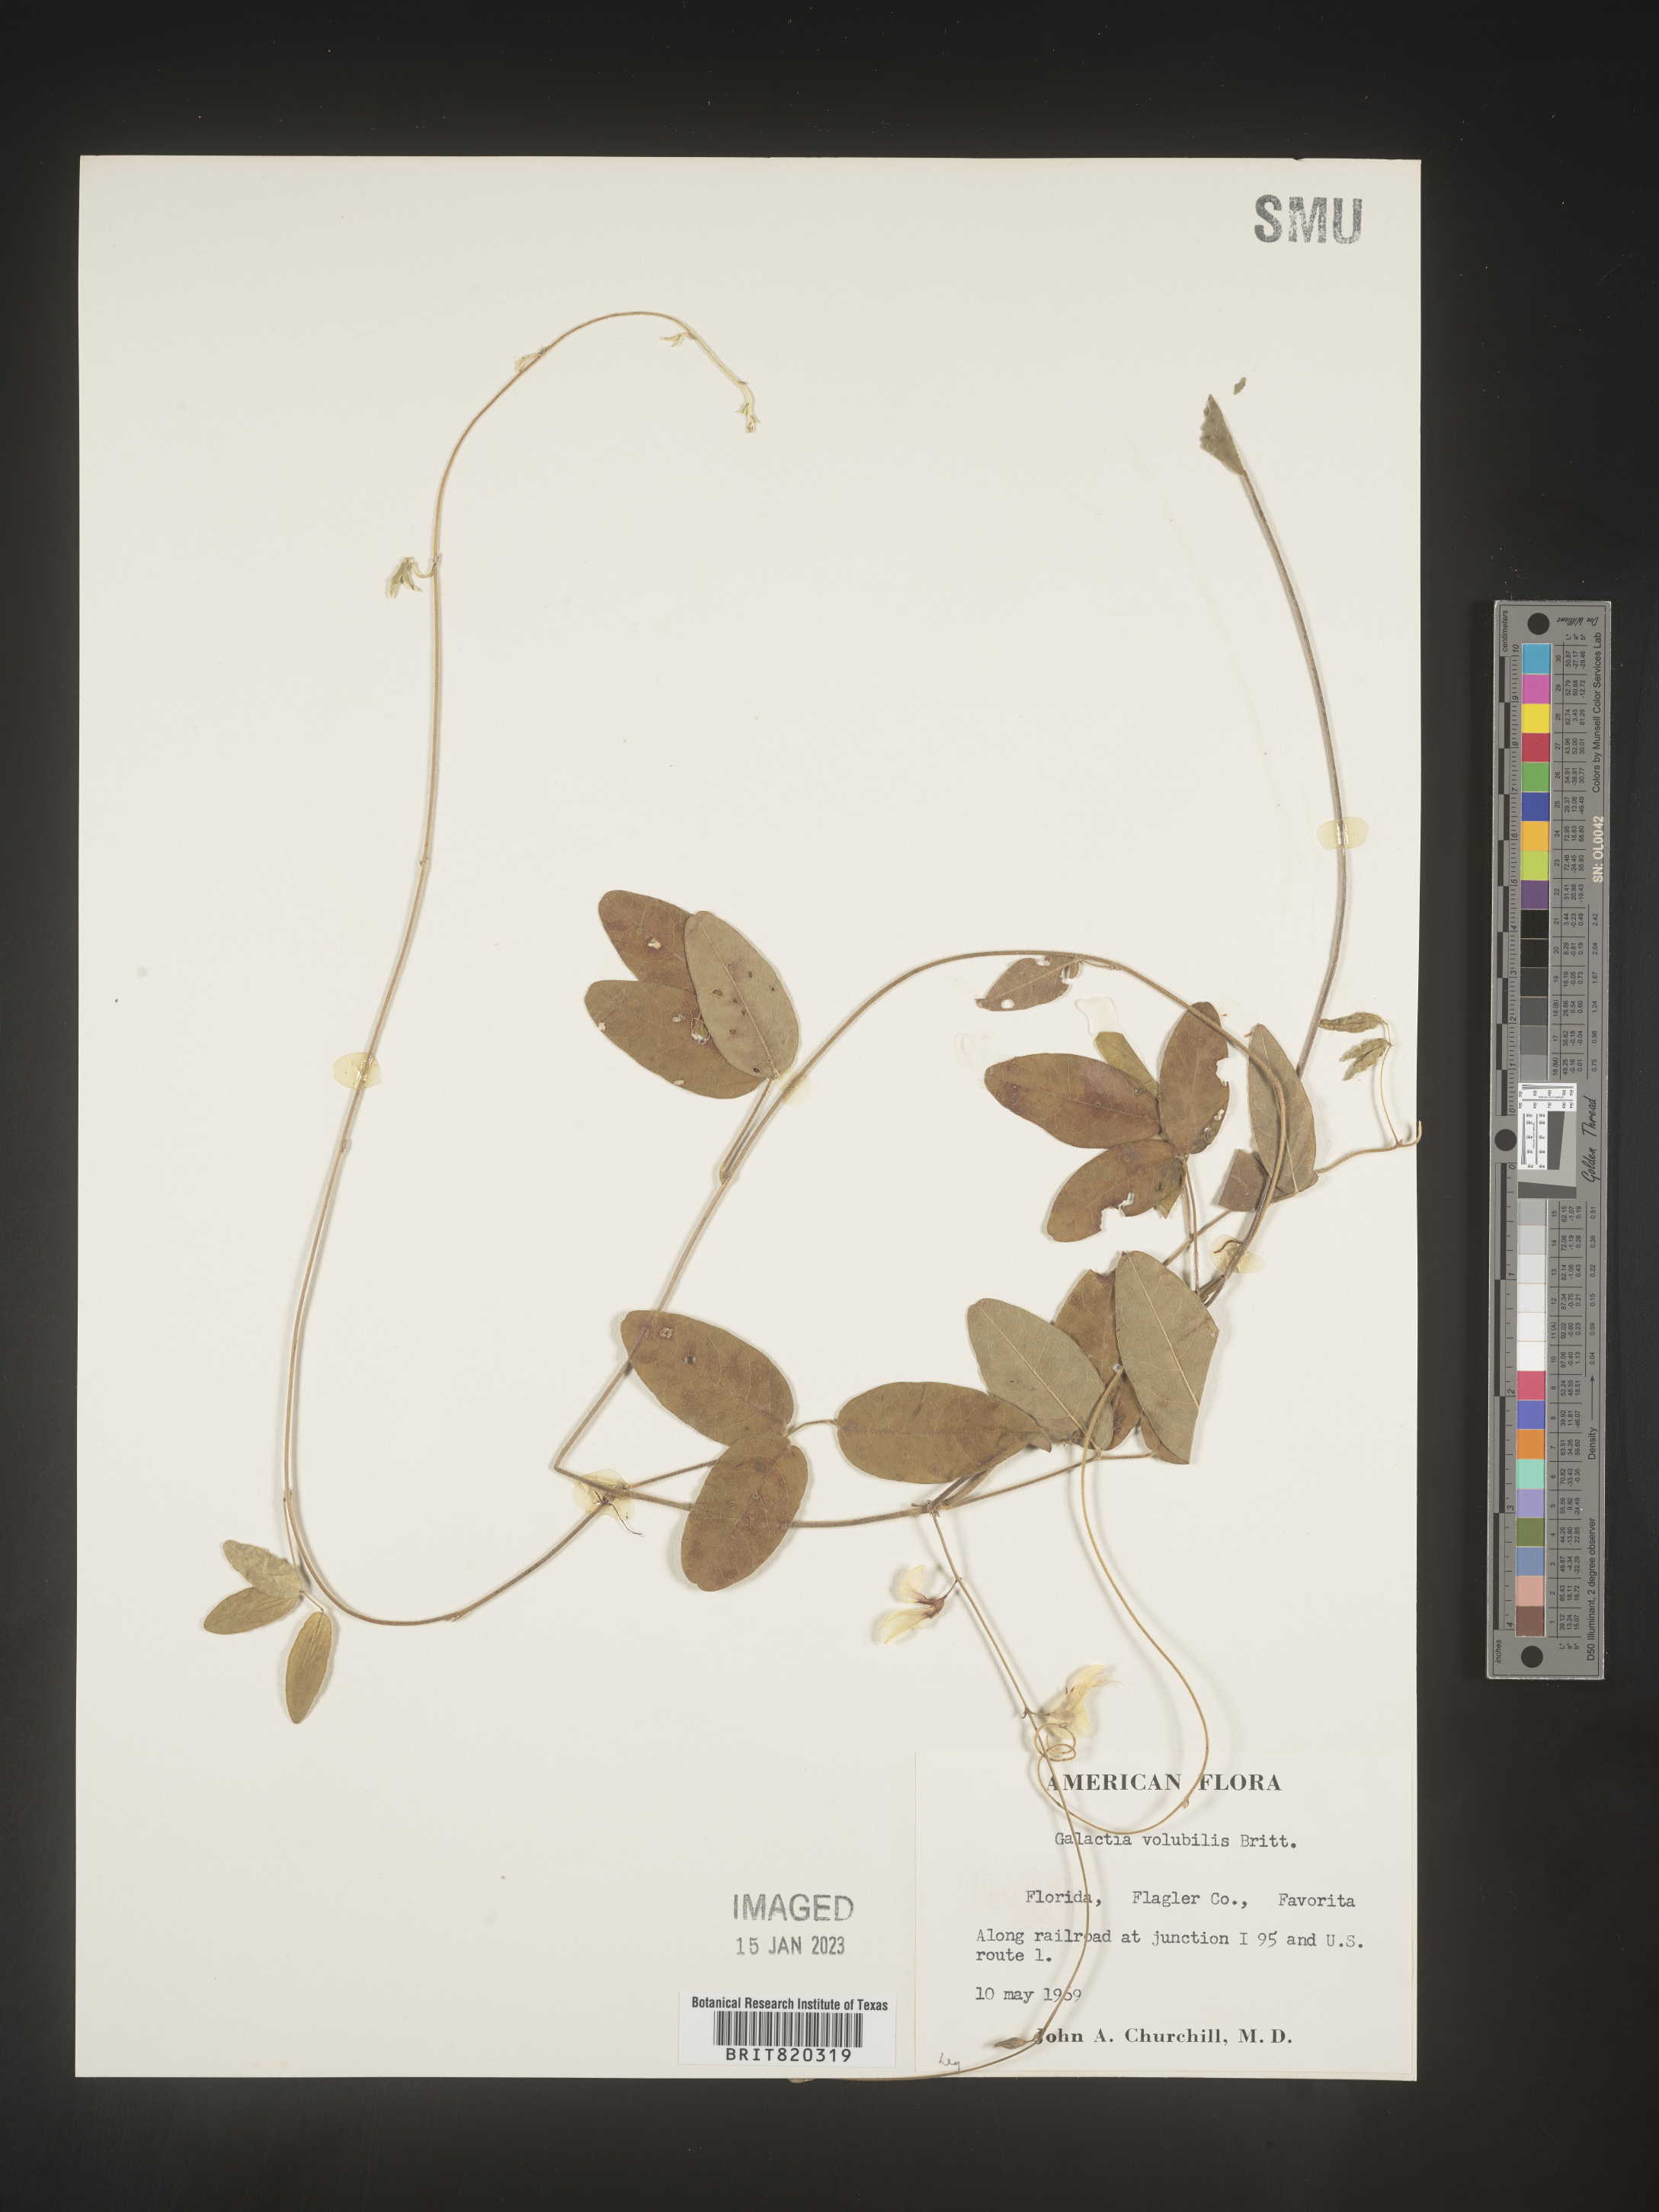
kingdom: Plantae
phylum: Tracheophyta
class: Magnoliopsida
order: Fabales
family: Fabaceae
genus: Galactia
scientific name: Galactia regularis
